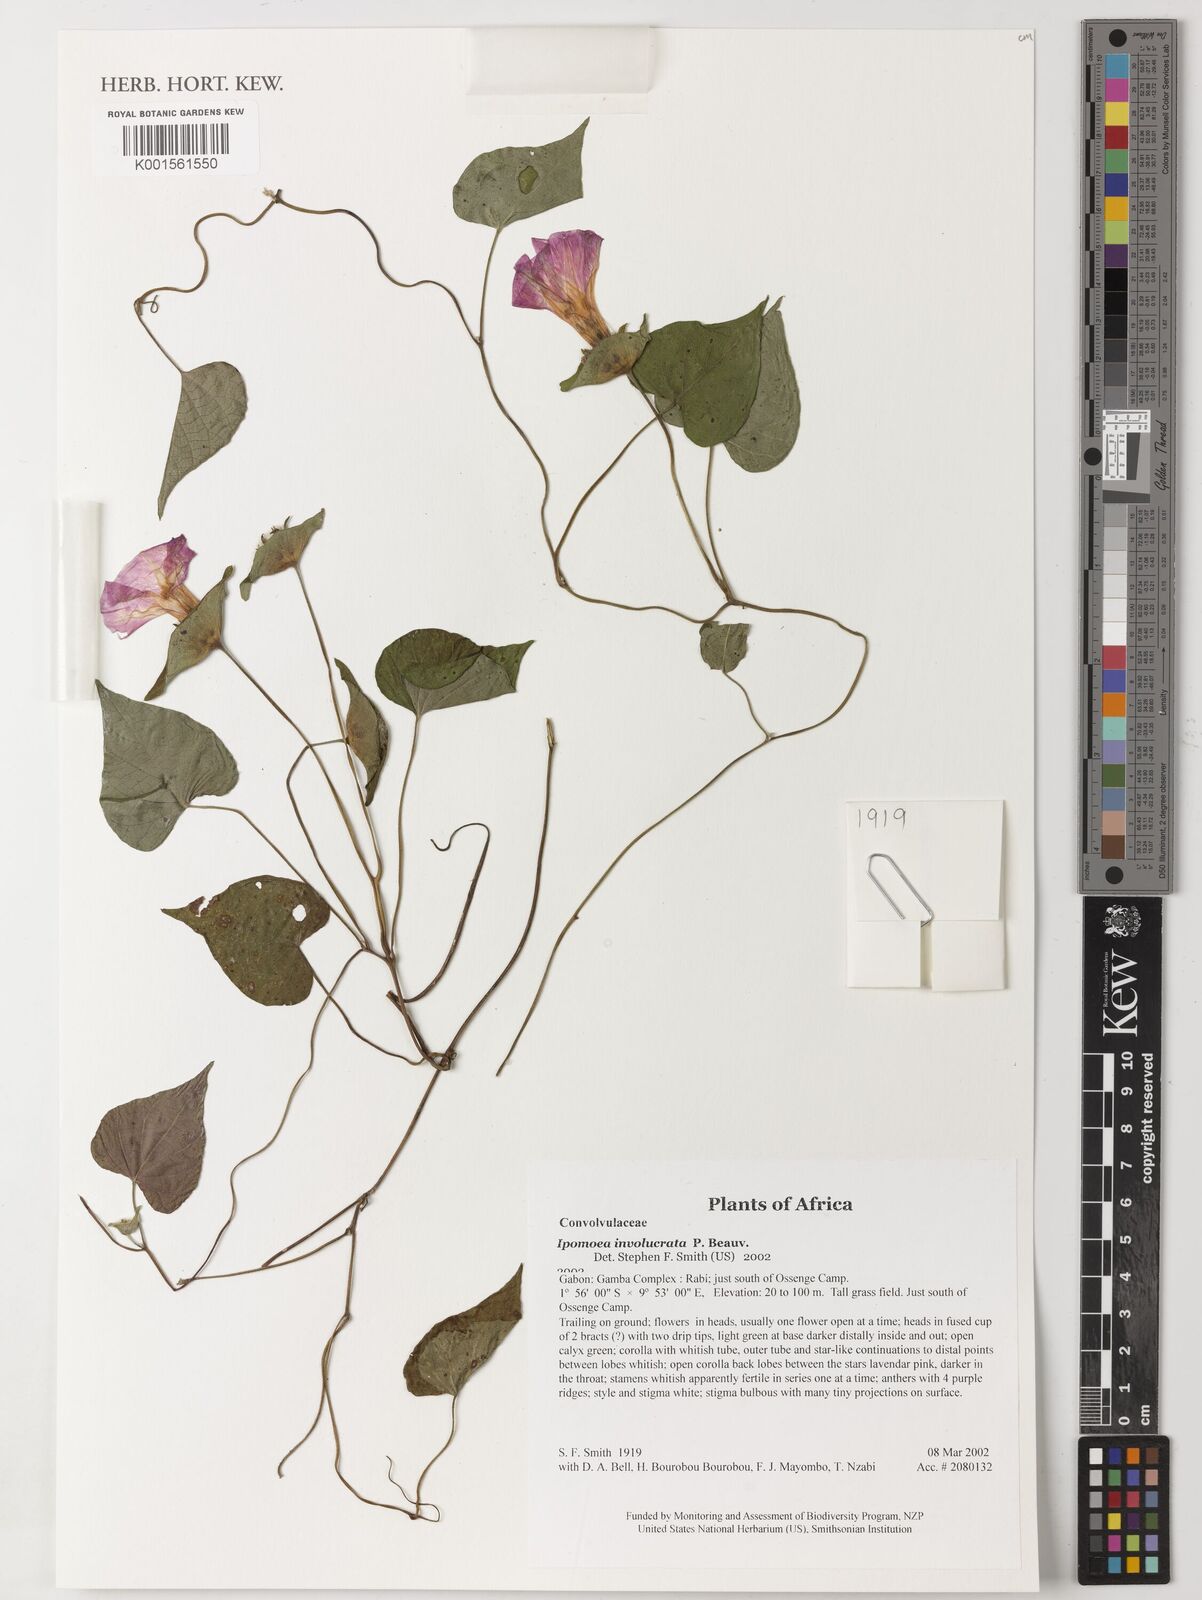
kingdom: Plantae
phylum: Tracheophyta
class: Magnoliopsida
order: Solanales
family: Convolvulaceae
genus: Ipomoea
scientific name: Ipomoea involucrata
